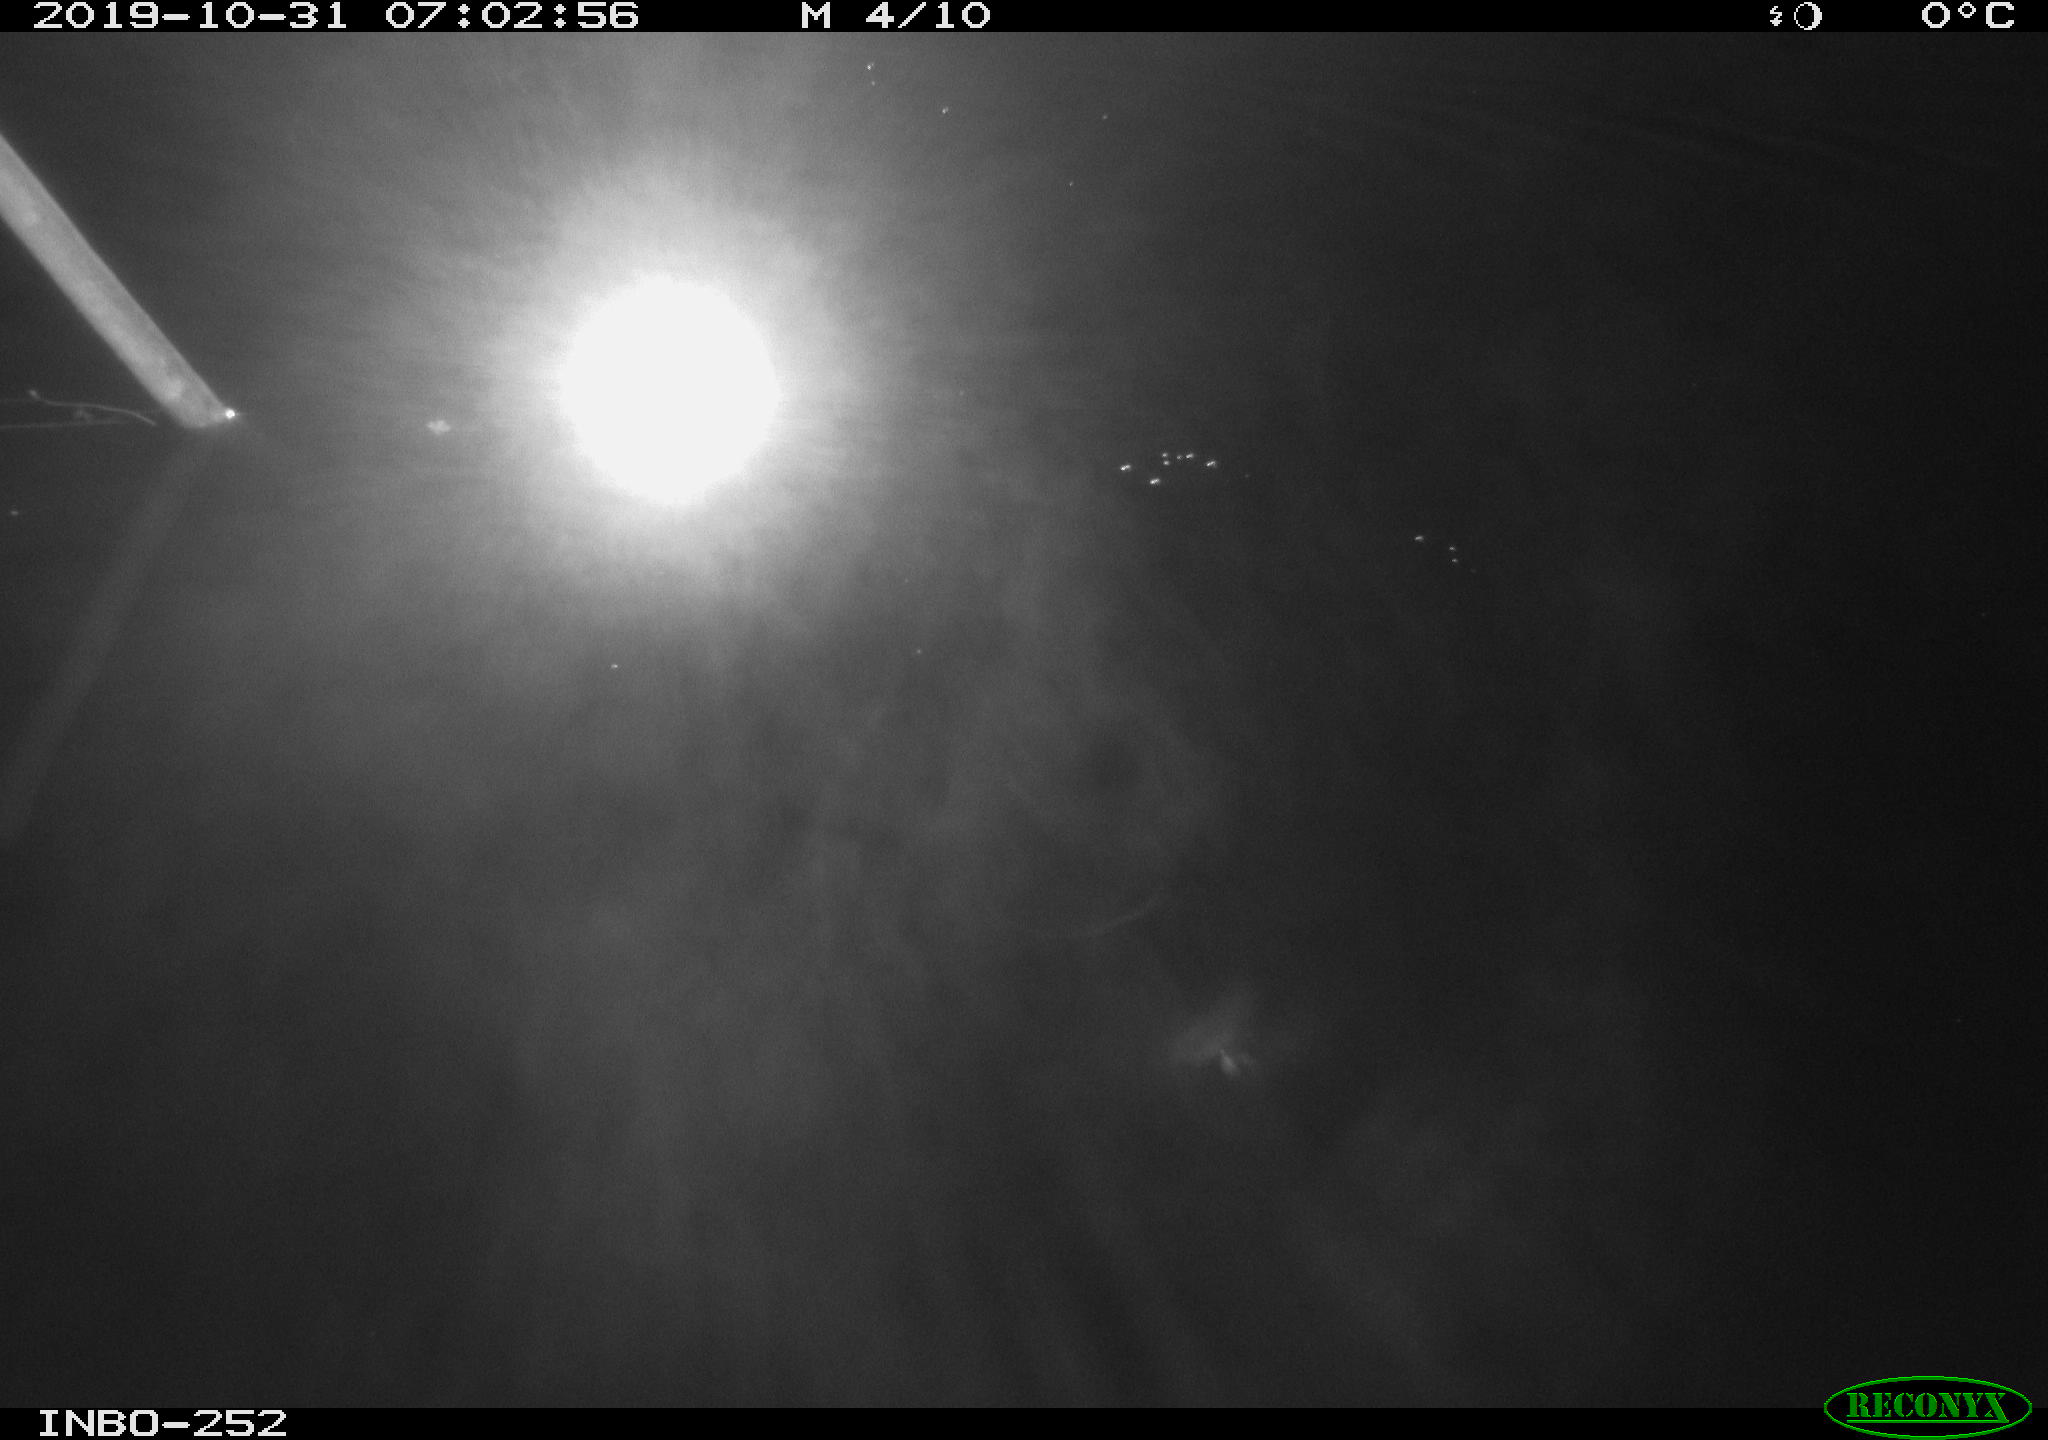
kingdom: Animalia
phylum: Chordata
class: Aves
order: Anseriformes
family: Anatidae
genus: Anas
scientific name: Anas platyrhynchos
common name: Mallard
